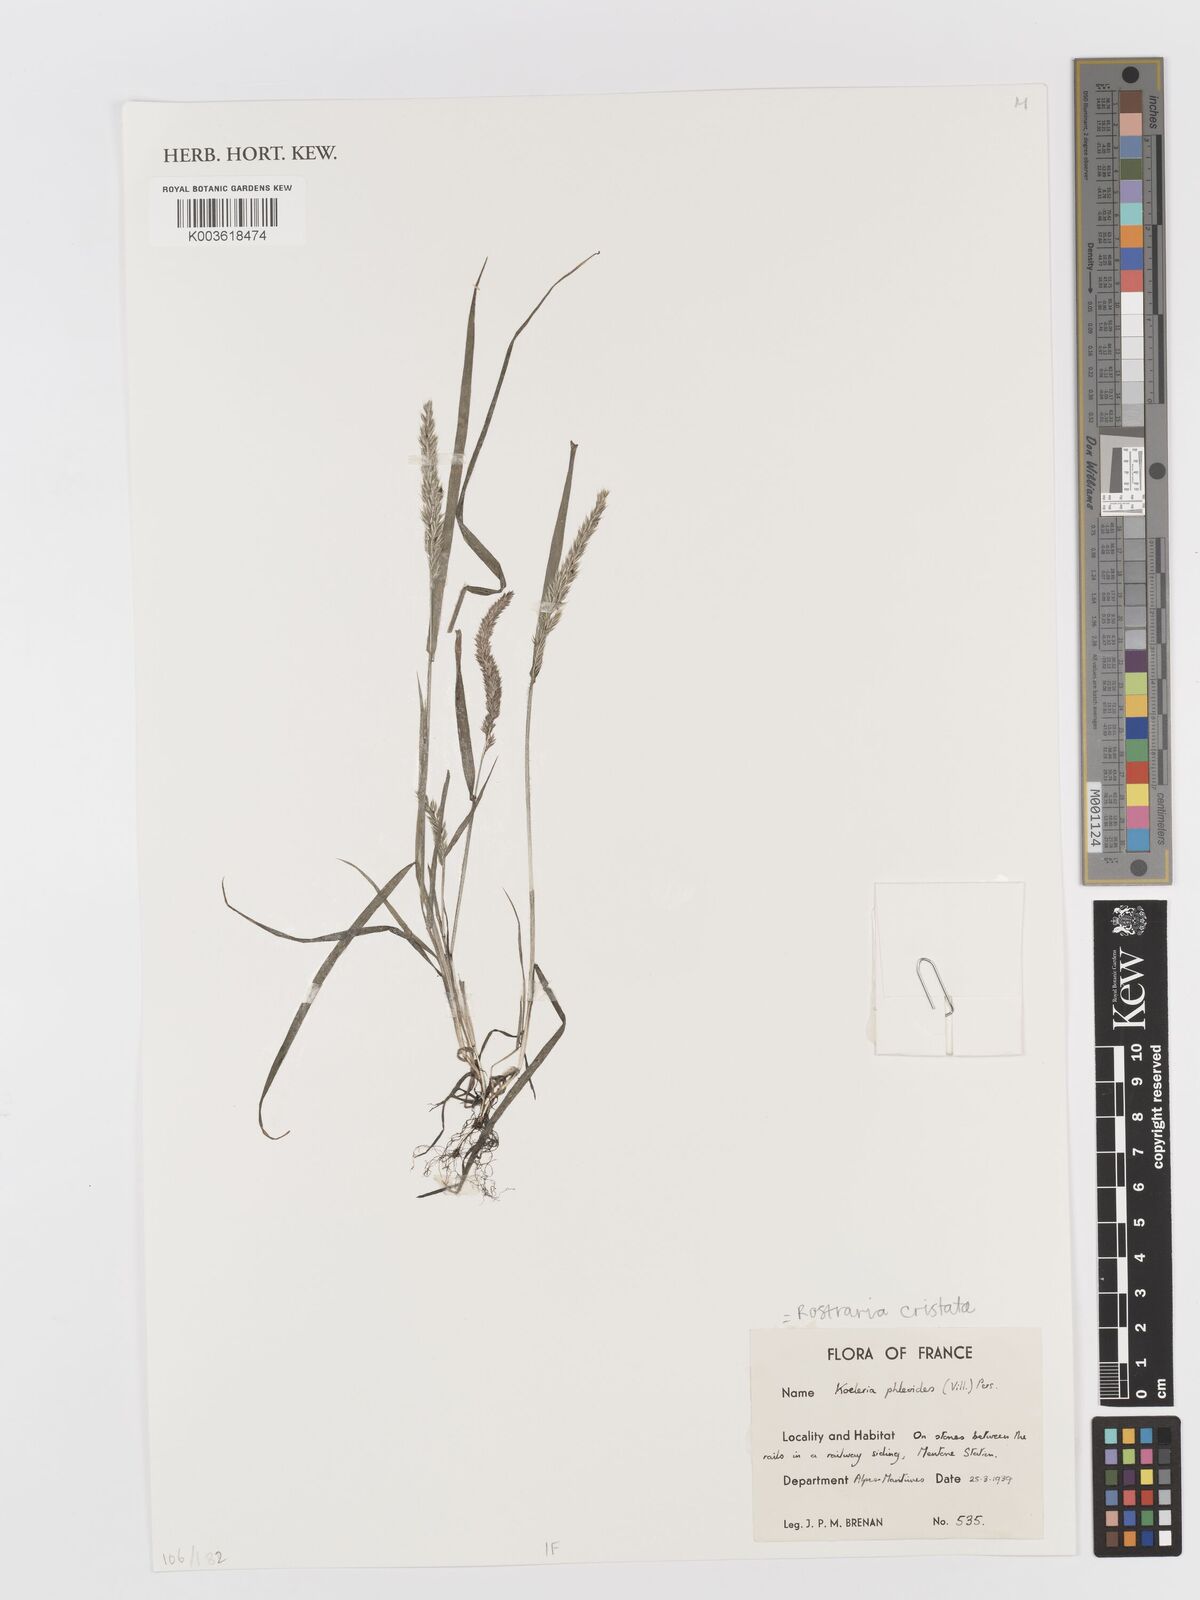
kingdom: Plantae
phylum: Tracheophyta
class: Liliopsida
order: Poales
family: Poaceae
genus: Rostraria
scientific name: Rostraria cristata
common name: Mediterranean hair-grass
